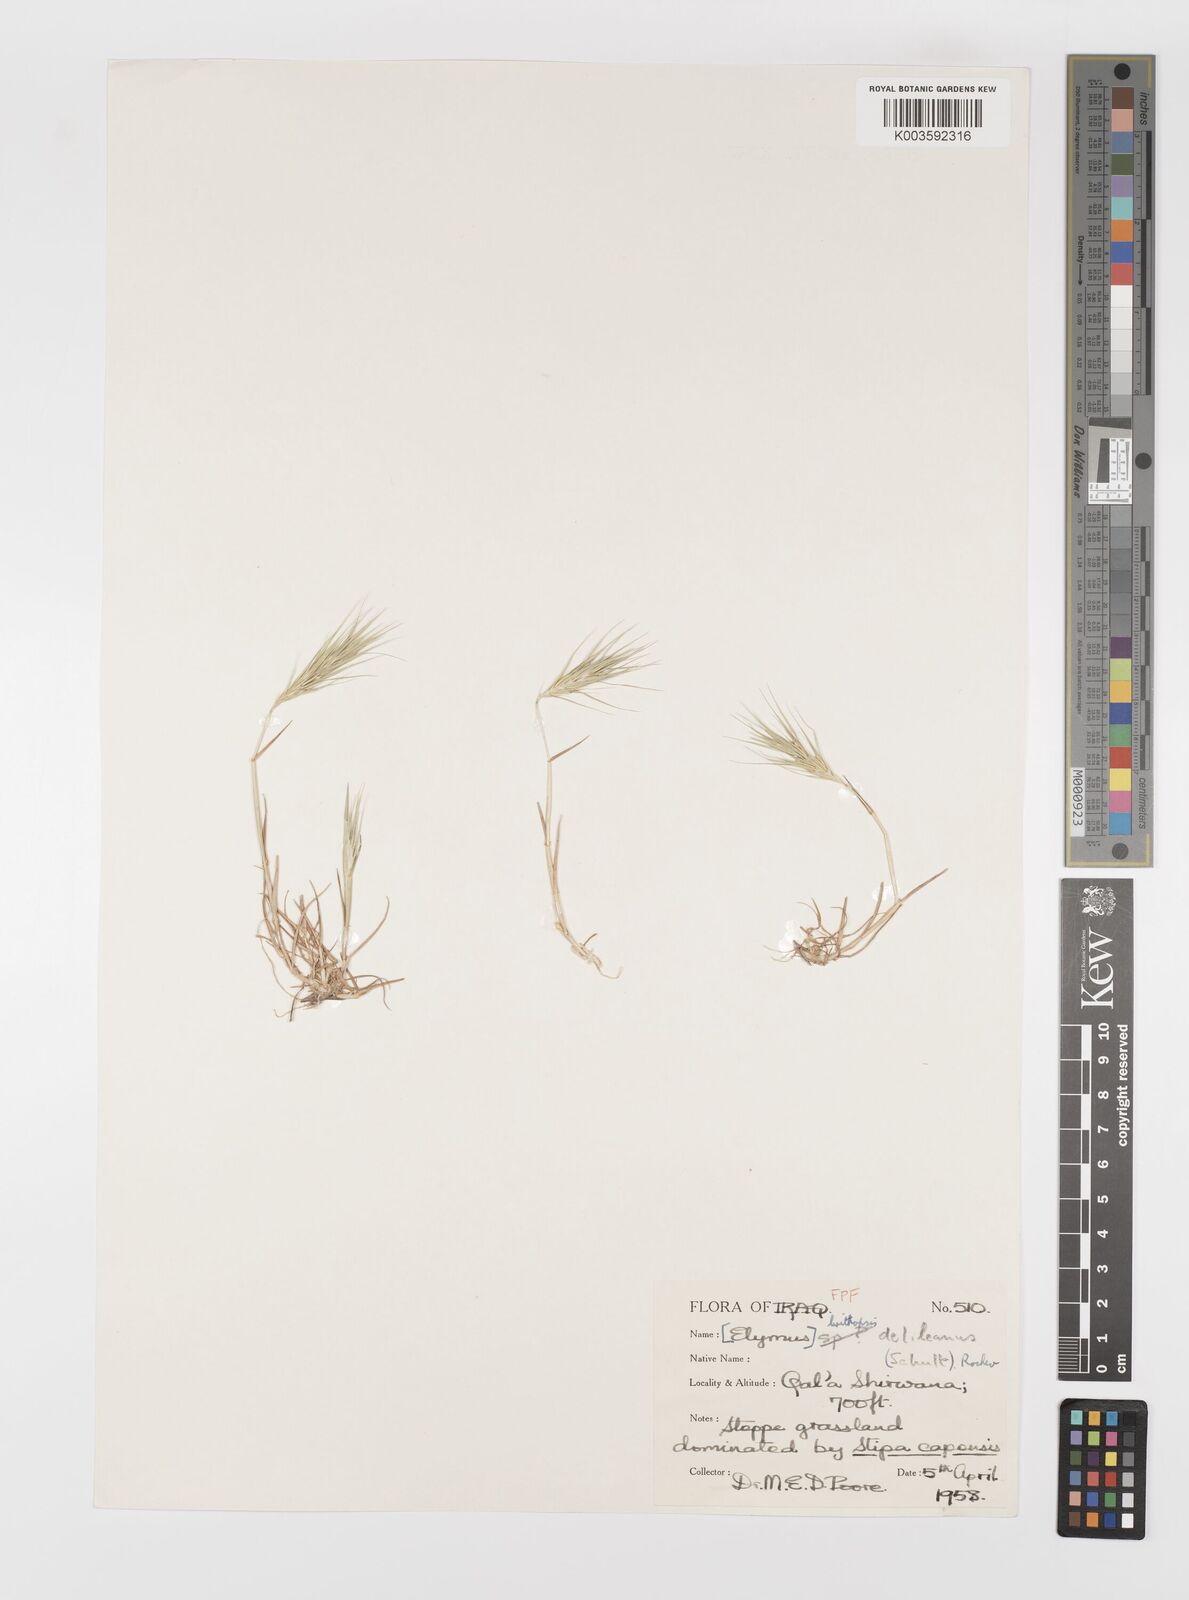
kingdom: Plantae
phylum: Tracheophyta
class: Liliopsida
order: Poales
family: Poaceae
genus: Crithopsis
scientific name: Crithopsis delileana
